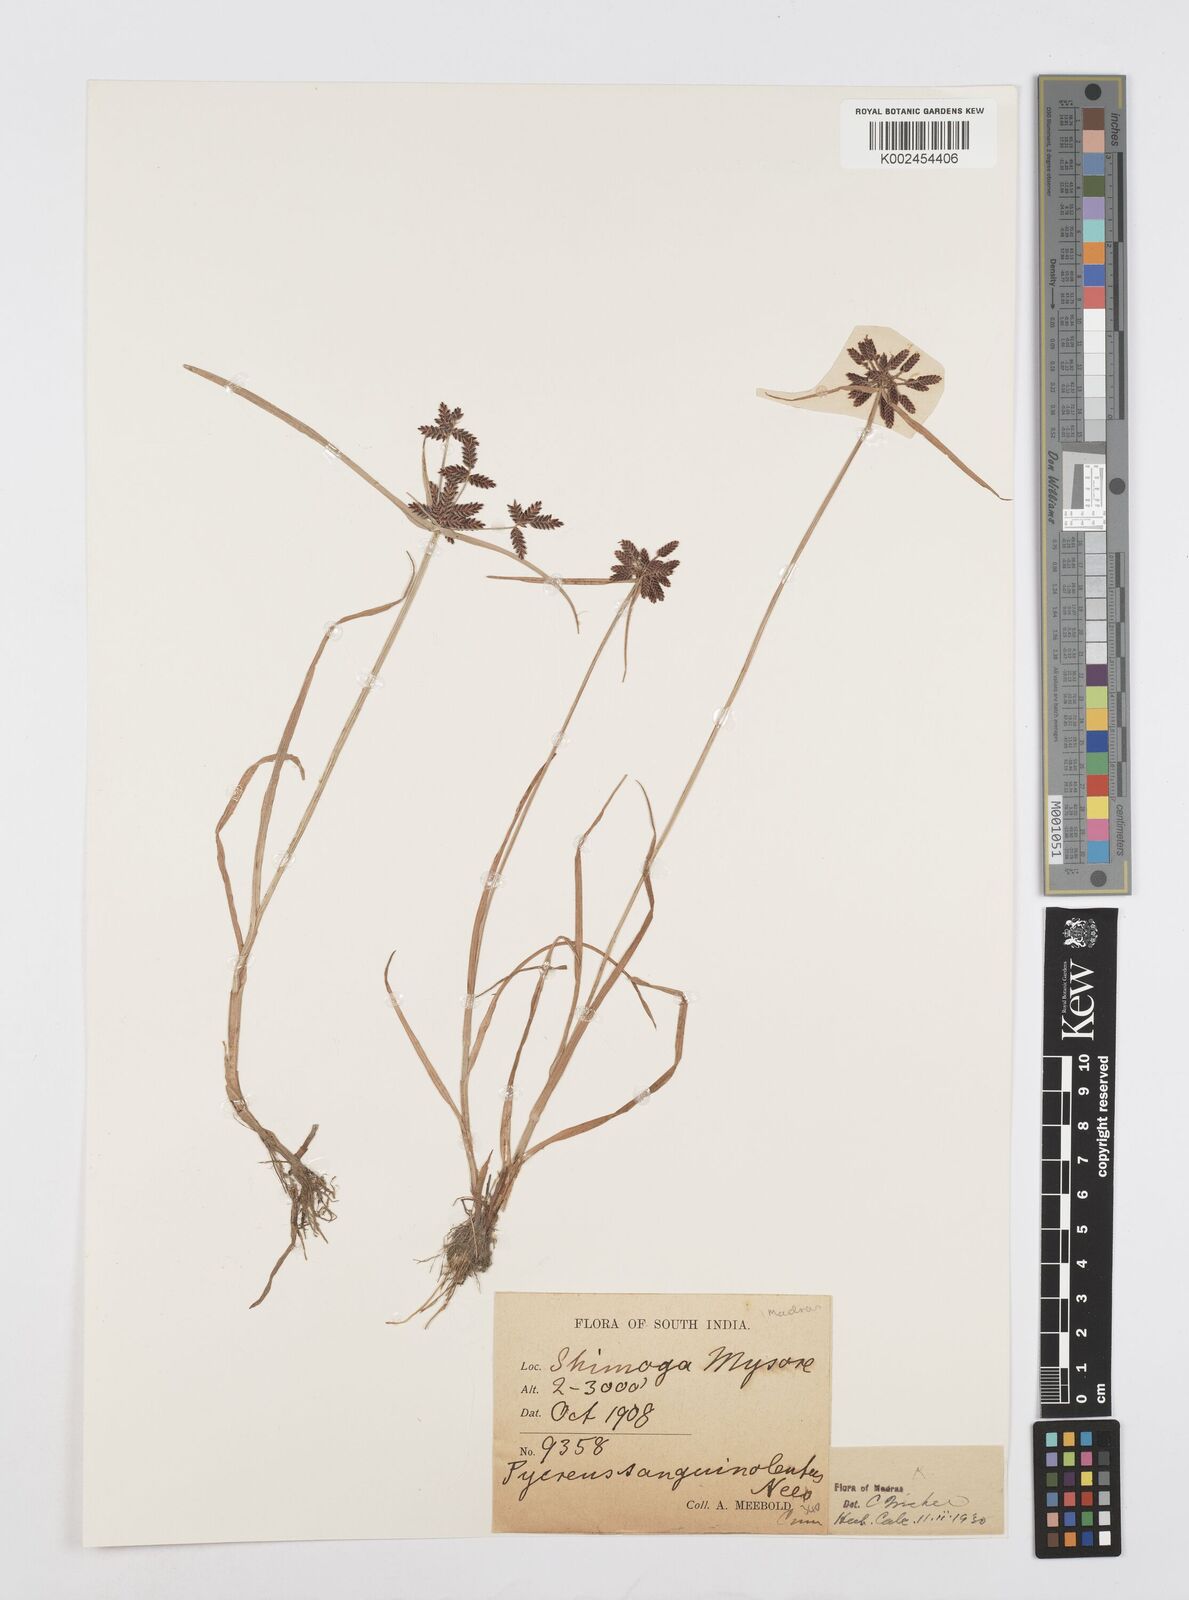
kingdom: Plantae
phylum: Tracheophyta
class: Liliopsida
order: Poales
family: Cyperaceae
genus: Cyperus
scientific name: Cyperus sanguinolentus
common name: Purpleglume flatsedge
